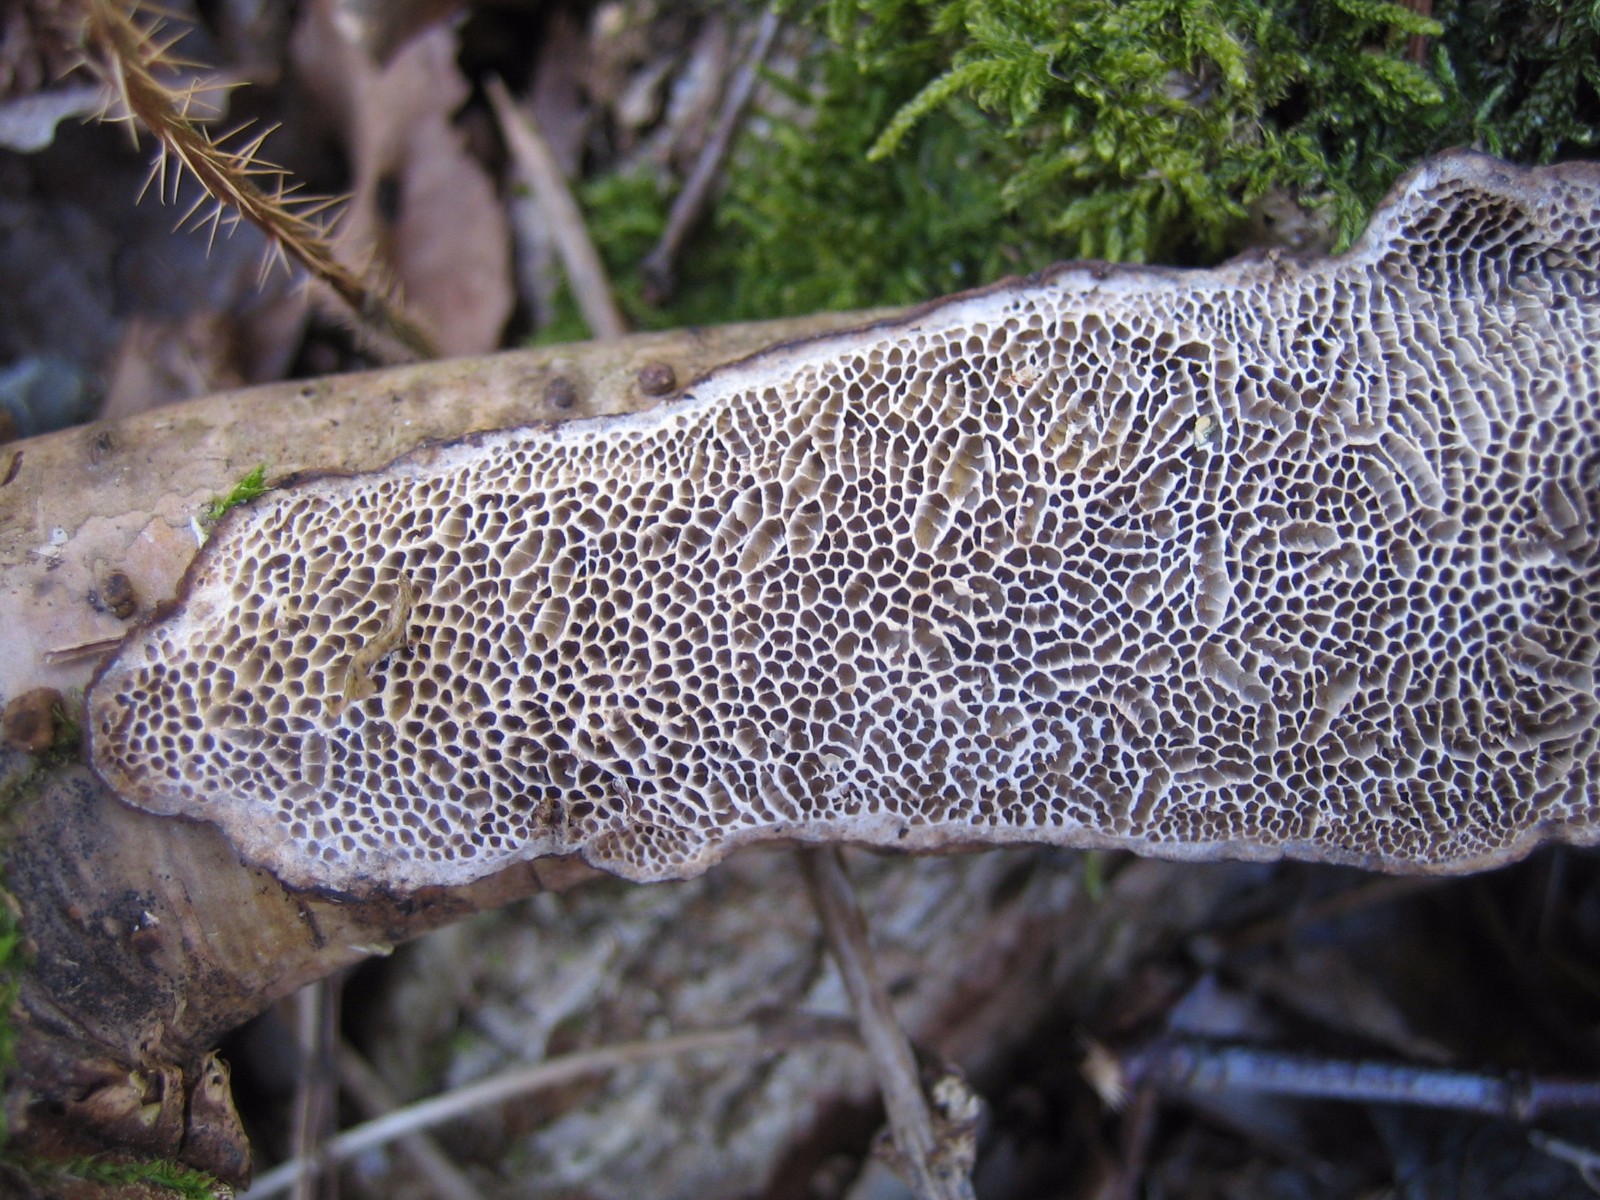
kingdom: Fungi
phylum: Basidiomycota
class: Agaricomycetes
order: Polyporales
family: Polyporaceae
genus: Podofomes
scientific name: Podofomes mollis
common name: blød begporesvamp
